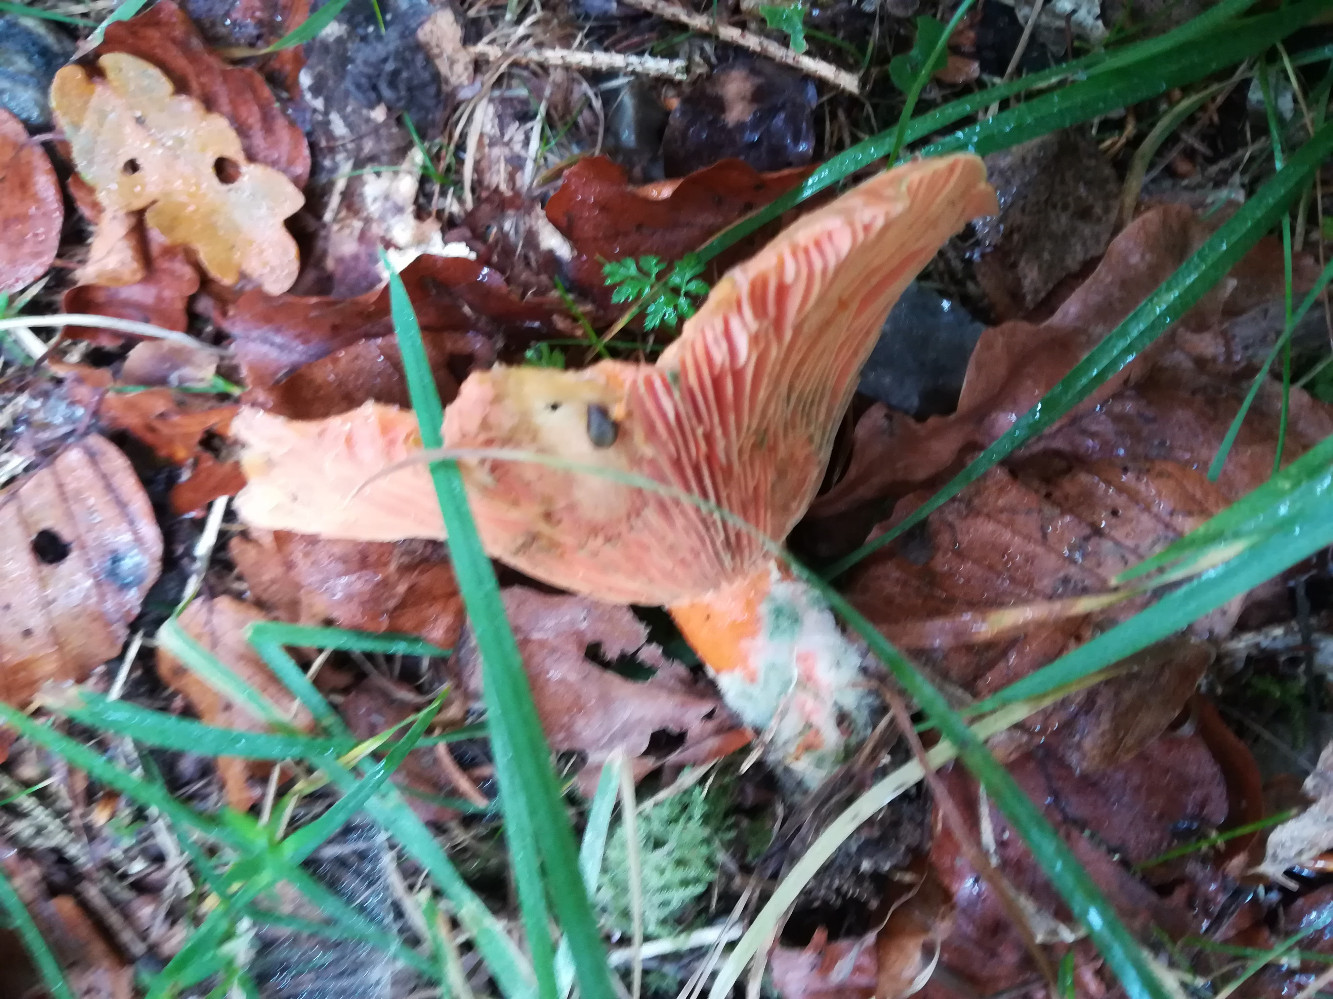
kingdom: Fungi
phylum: Basidiomycota
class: Agaricomycetes
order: Russulales
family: Russulaceae
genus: Lactarius
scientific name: Lactarius deterrimus
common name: gran-mælkehat
